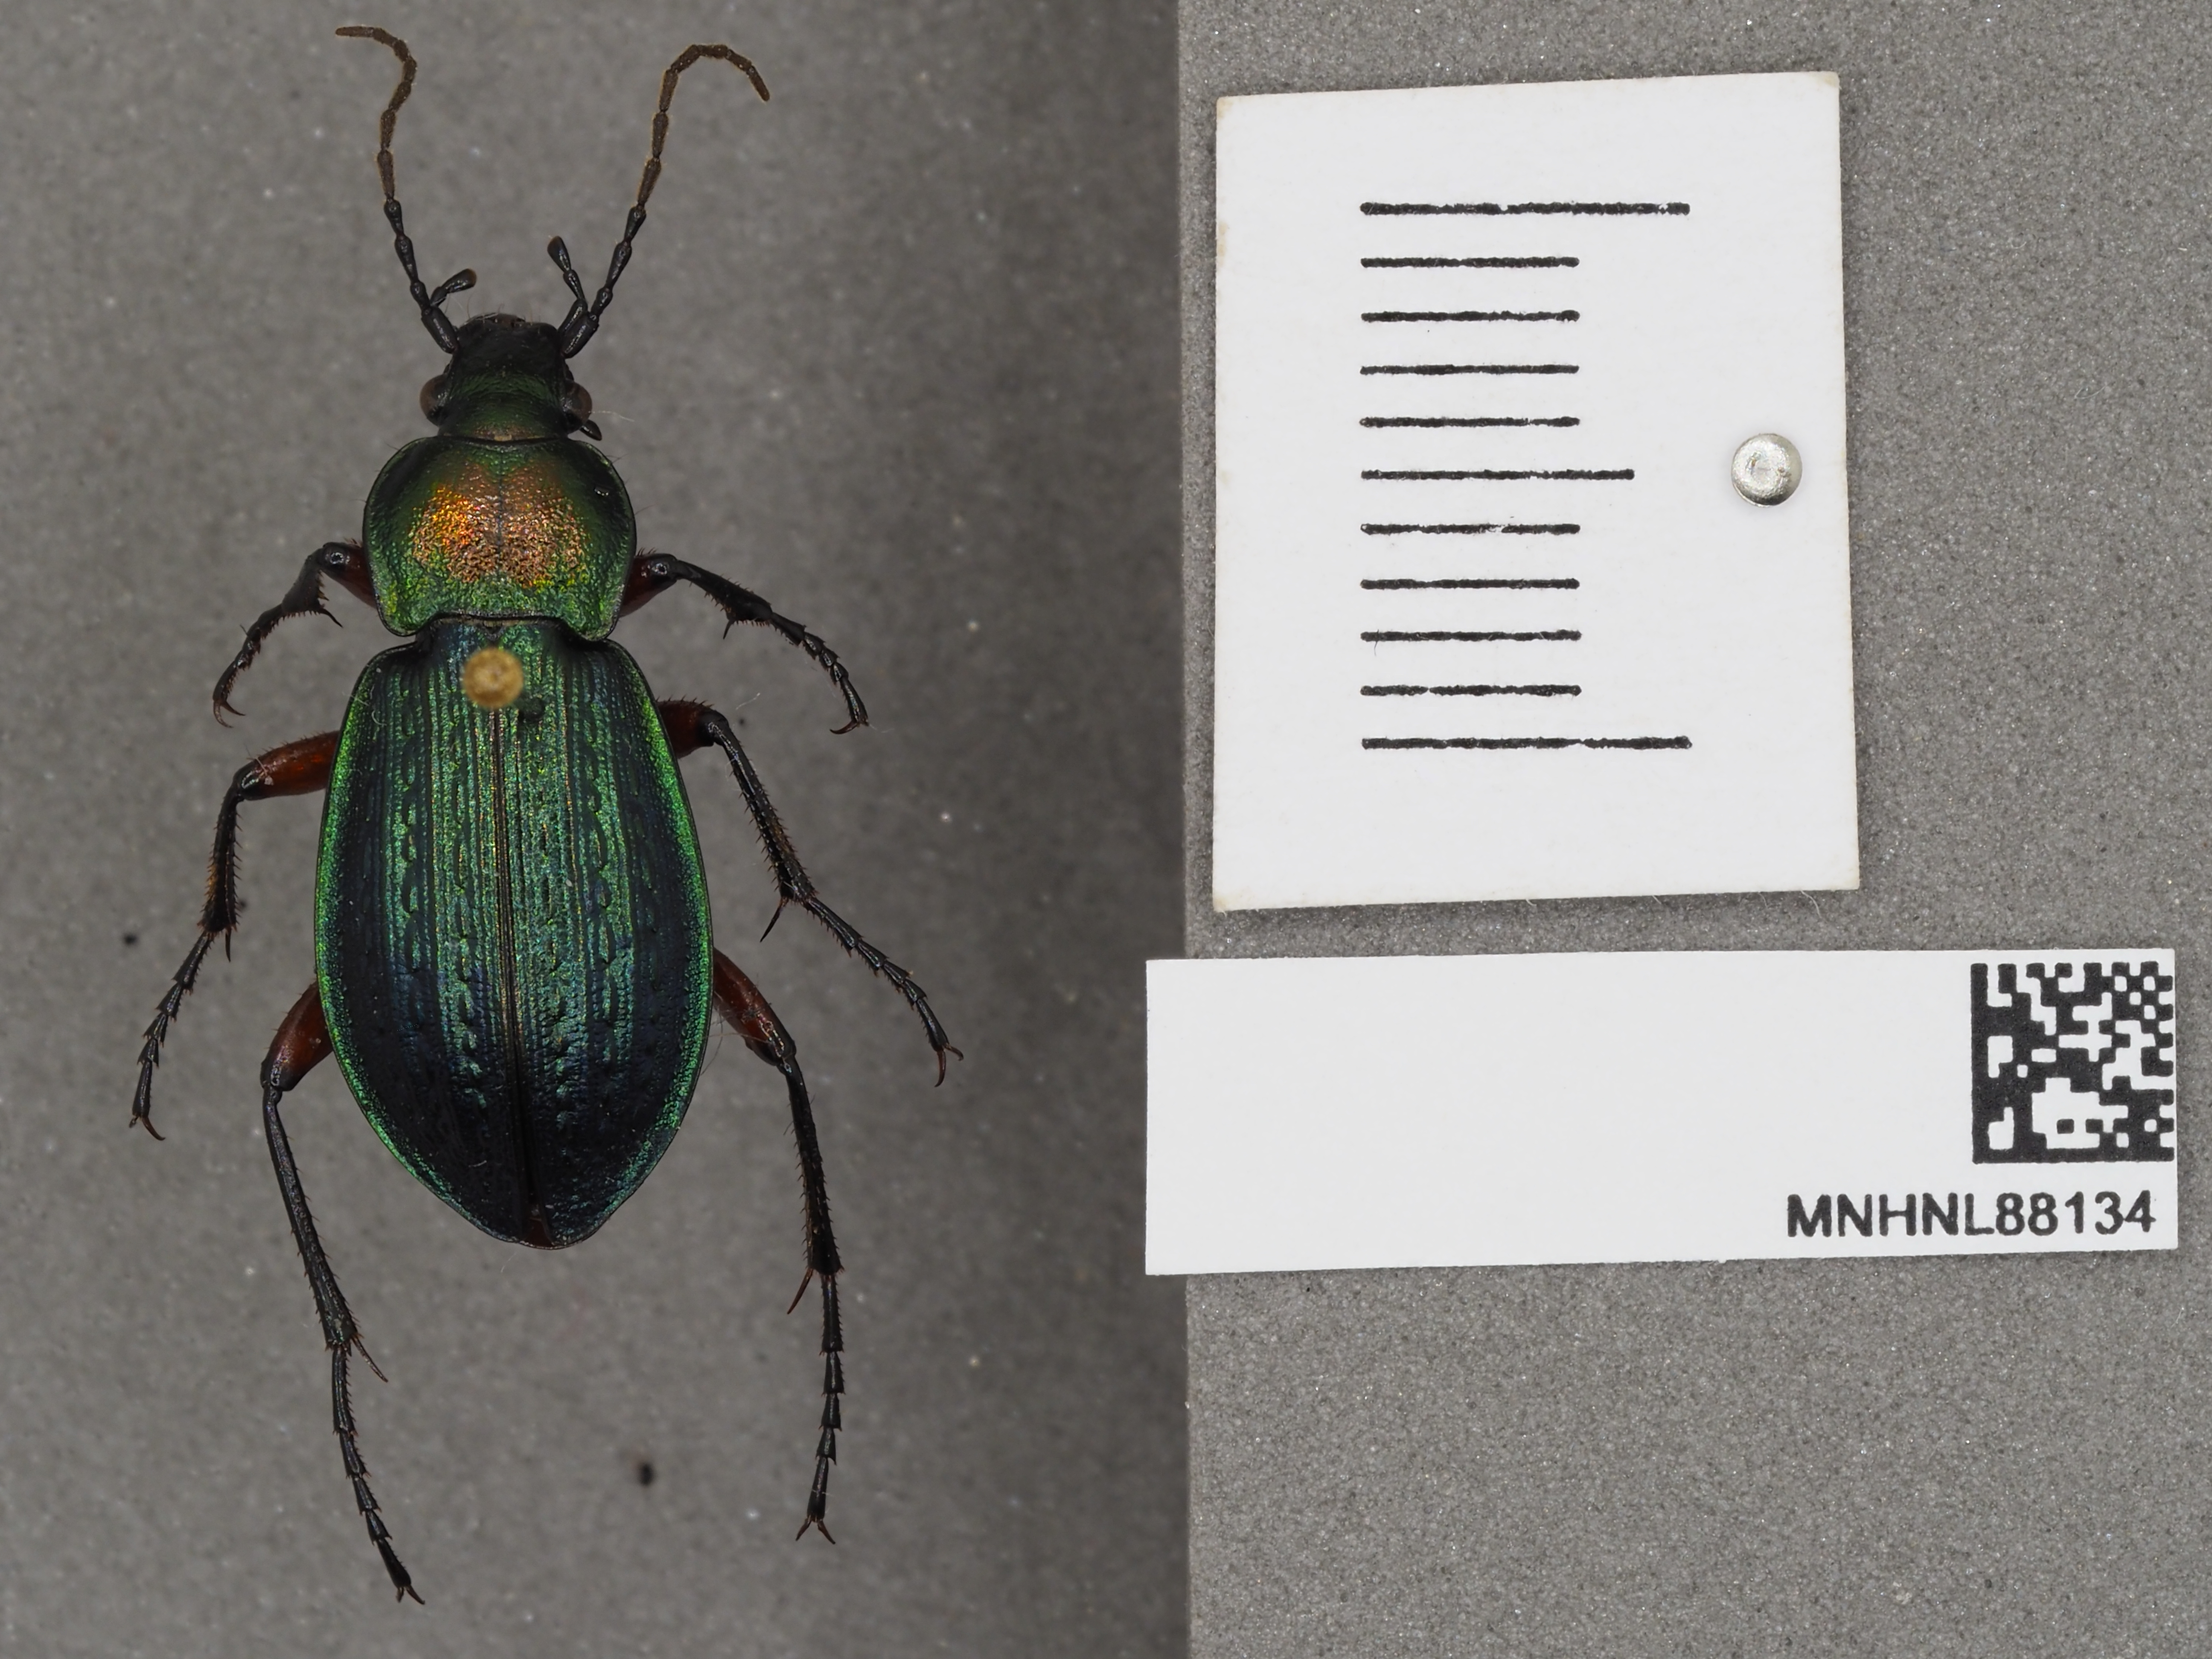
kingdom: Animalia
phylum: Arthropoda
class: Insecta
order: Coleoptera
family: Carabidae
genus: Carabus
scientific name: Carabus arvensis
